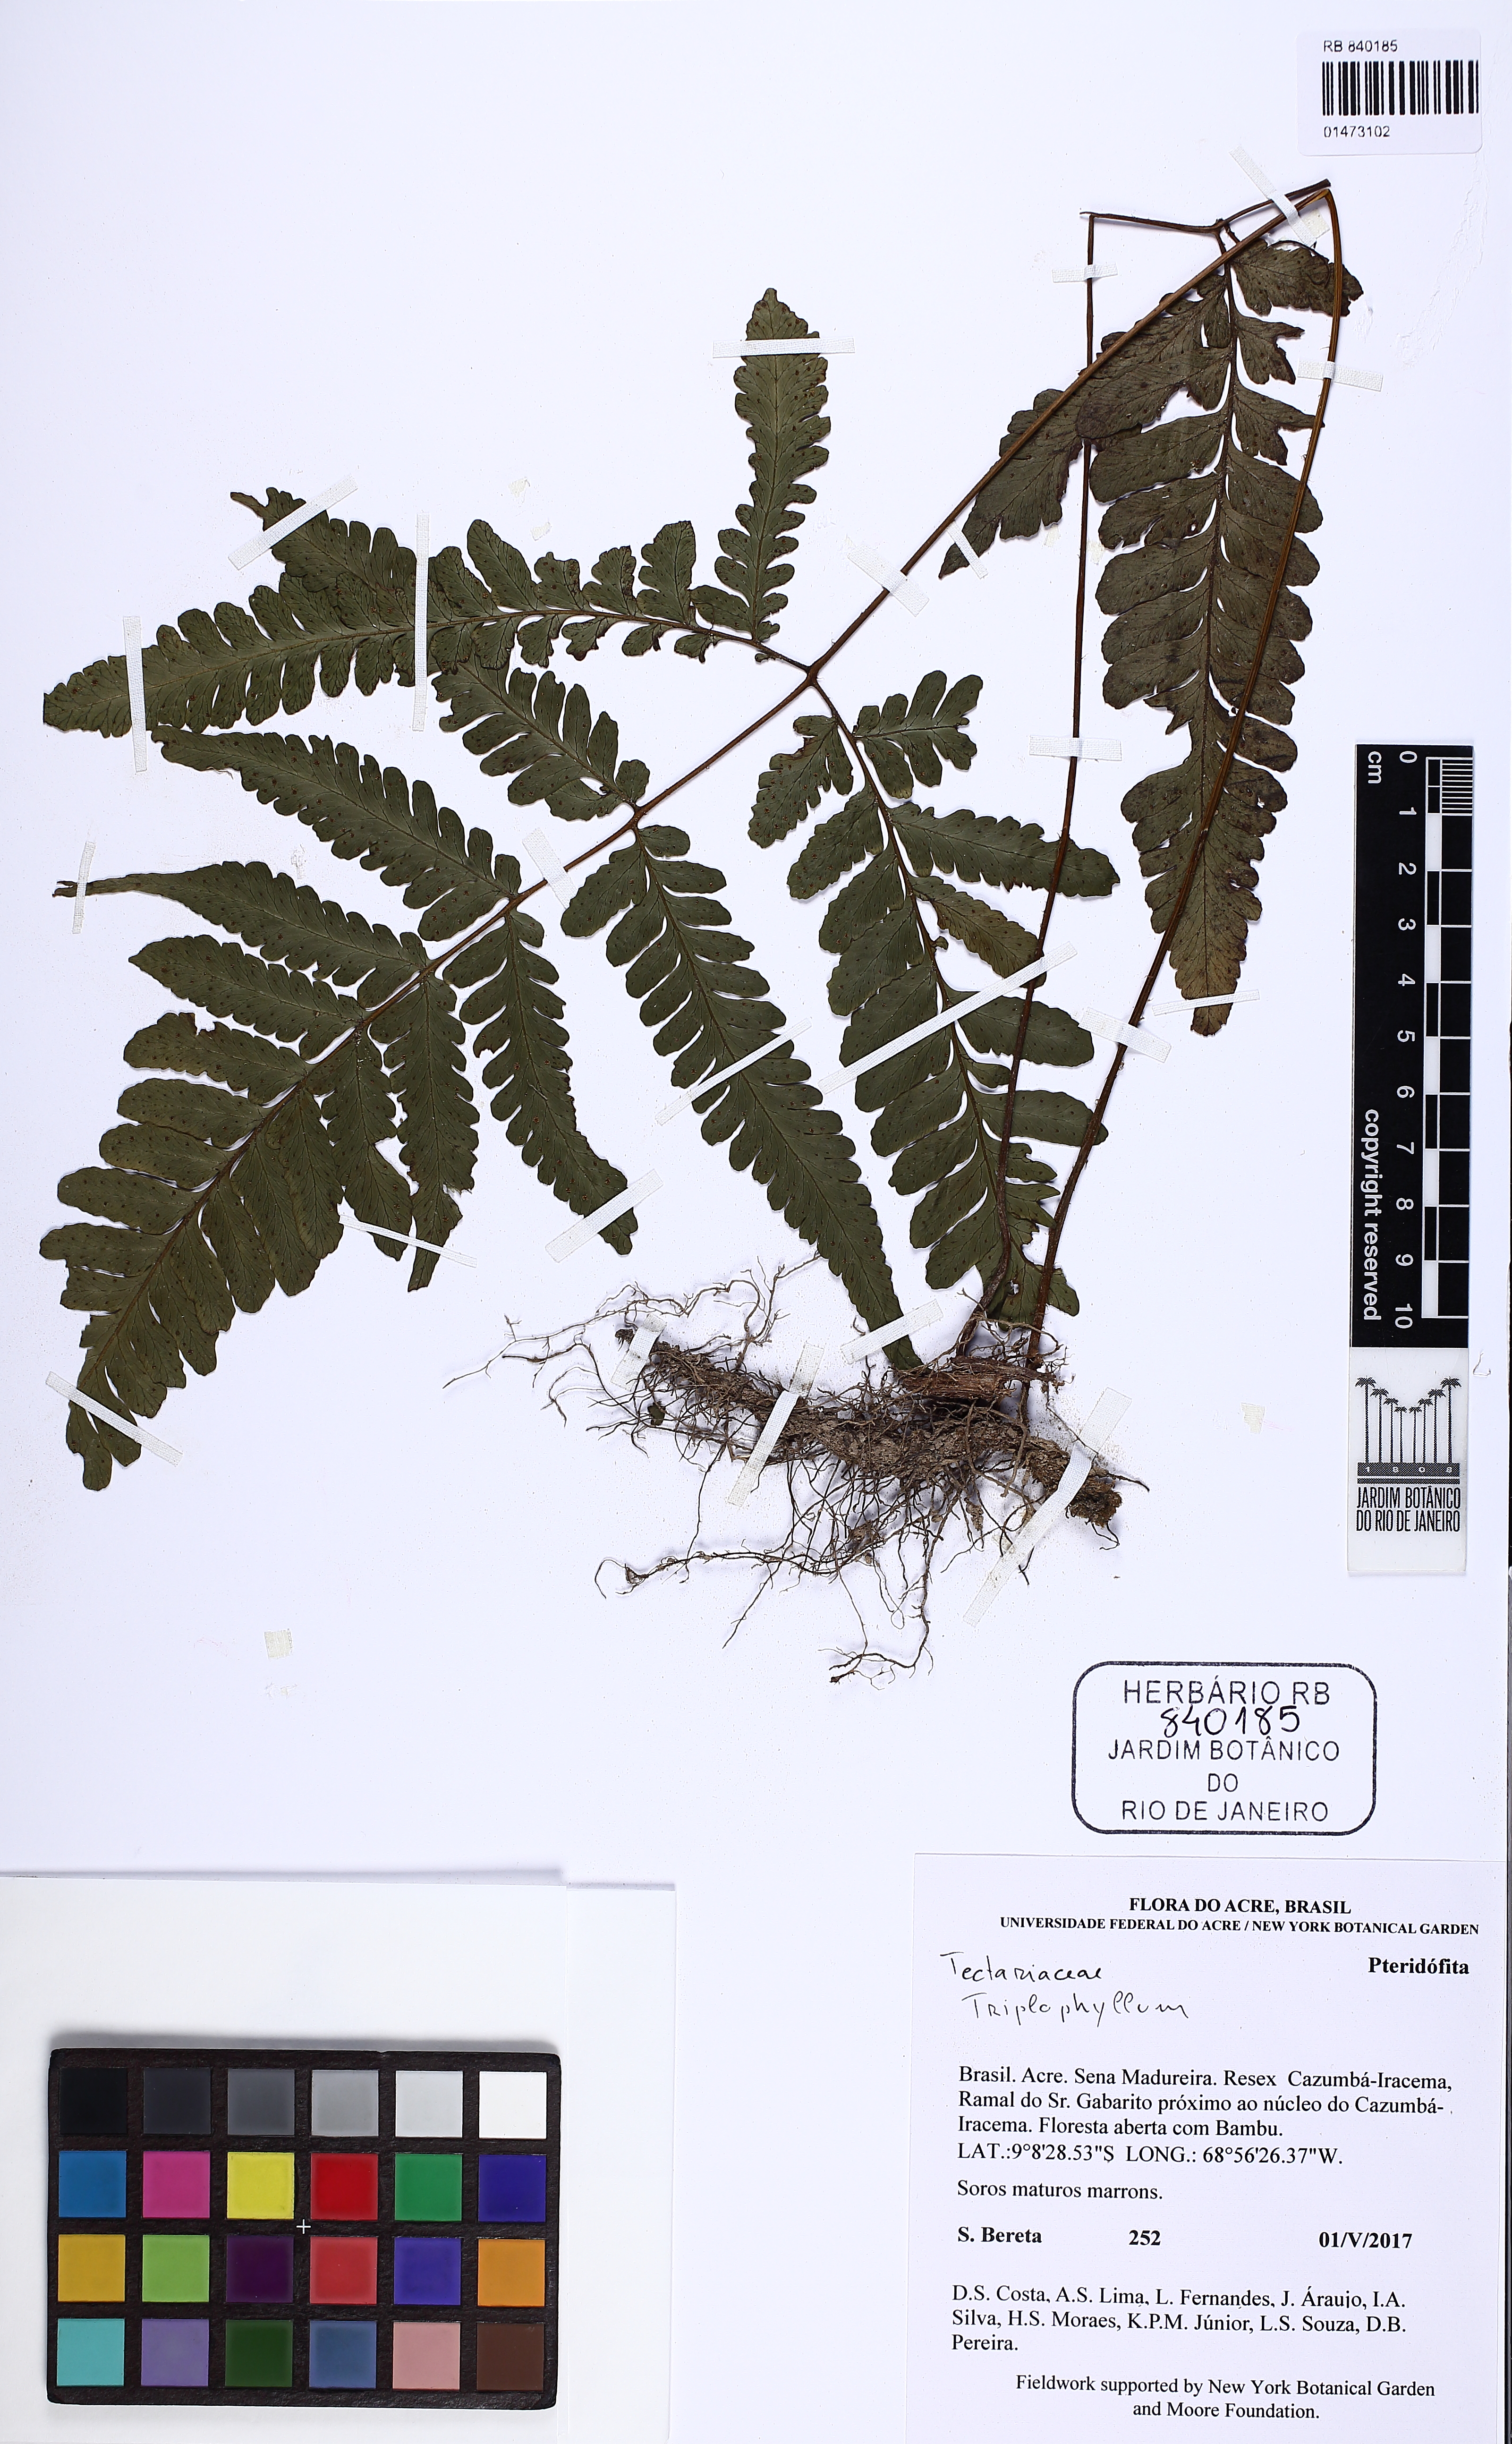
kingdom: Plantae
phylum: Tracheophyta
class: Polypodiopsida
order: Polypodiales
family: Tectariaceae
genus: Triplophyllum
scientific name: Triplophyllum
